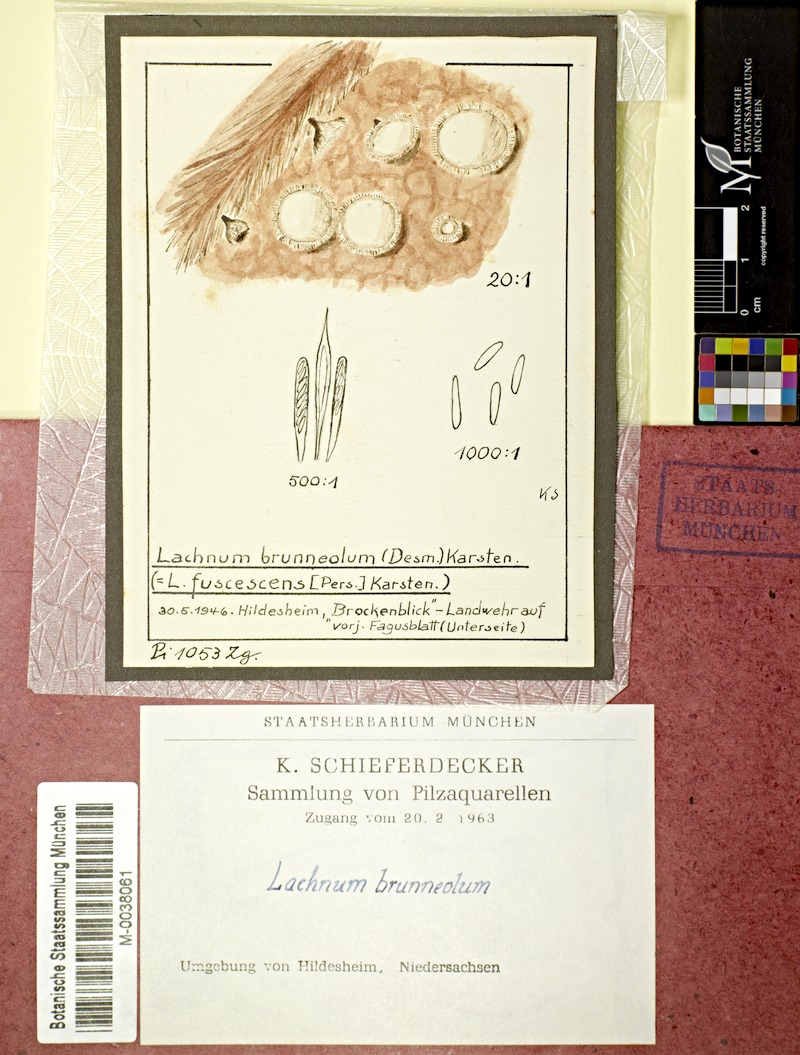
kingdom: Fungi
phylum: Ascomycota
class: Leotiomycetes
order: Helotiales
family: Lachnaceae
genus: Brunnipila
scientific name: Brunnipila fuscescens
